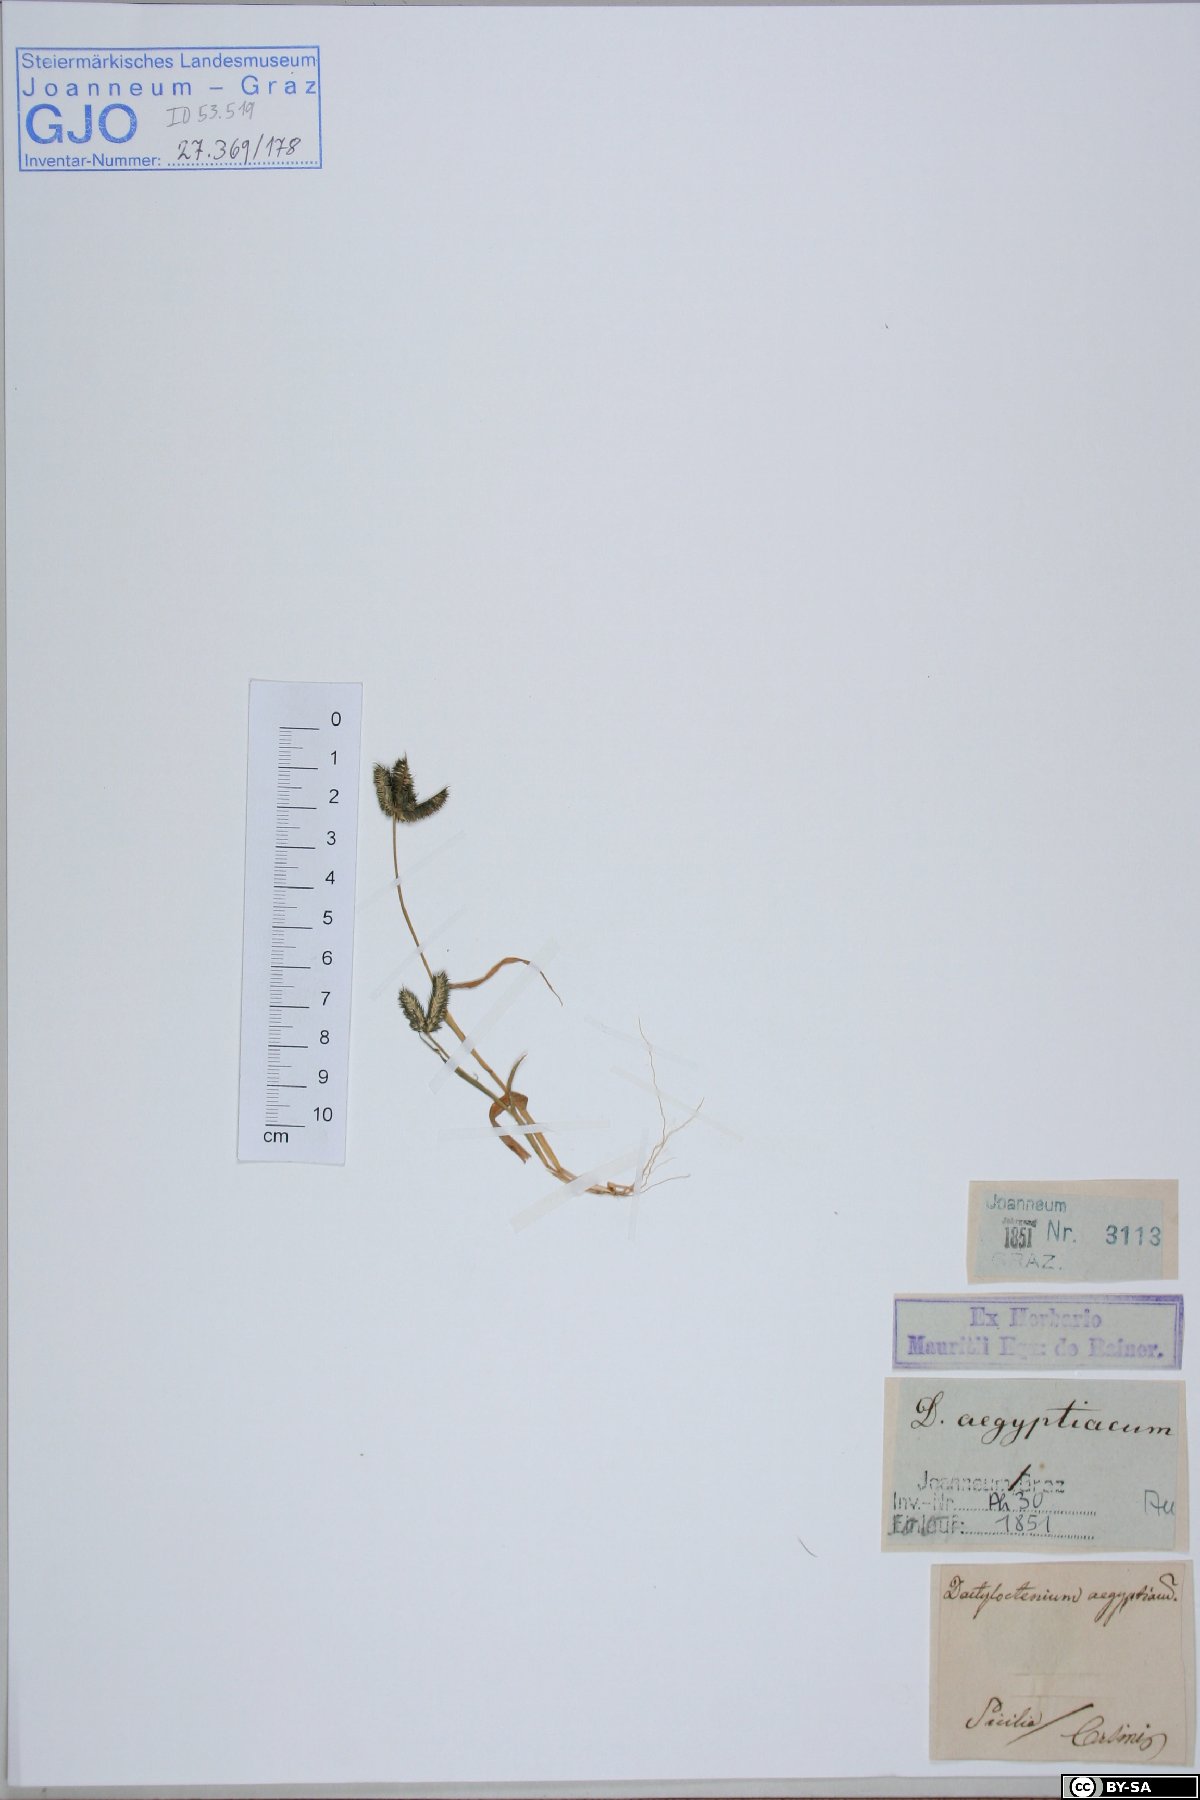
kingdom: Plantae
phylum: Tracheophyta
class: Liliopsida
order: Poales
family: Poaceae
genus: Dactyloctenium
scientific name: Dactyloctenium aegyptium
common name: Egyptian grass
